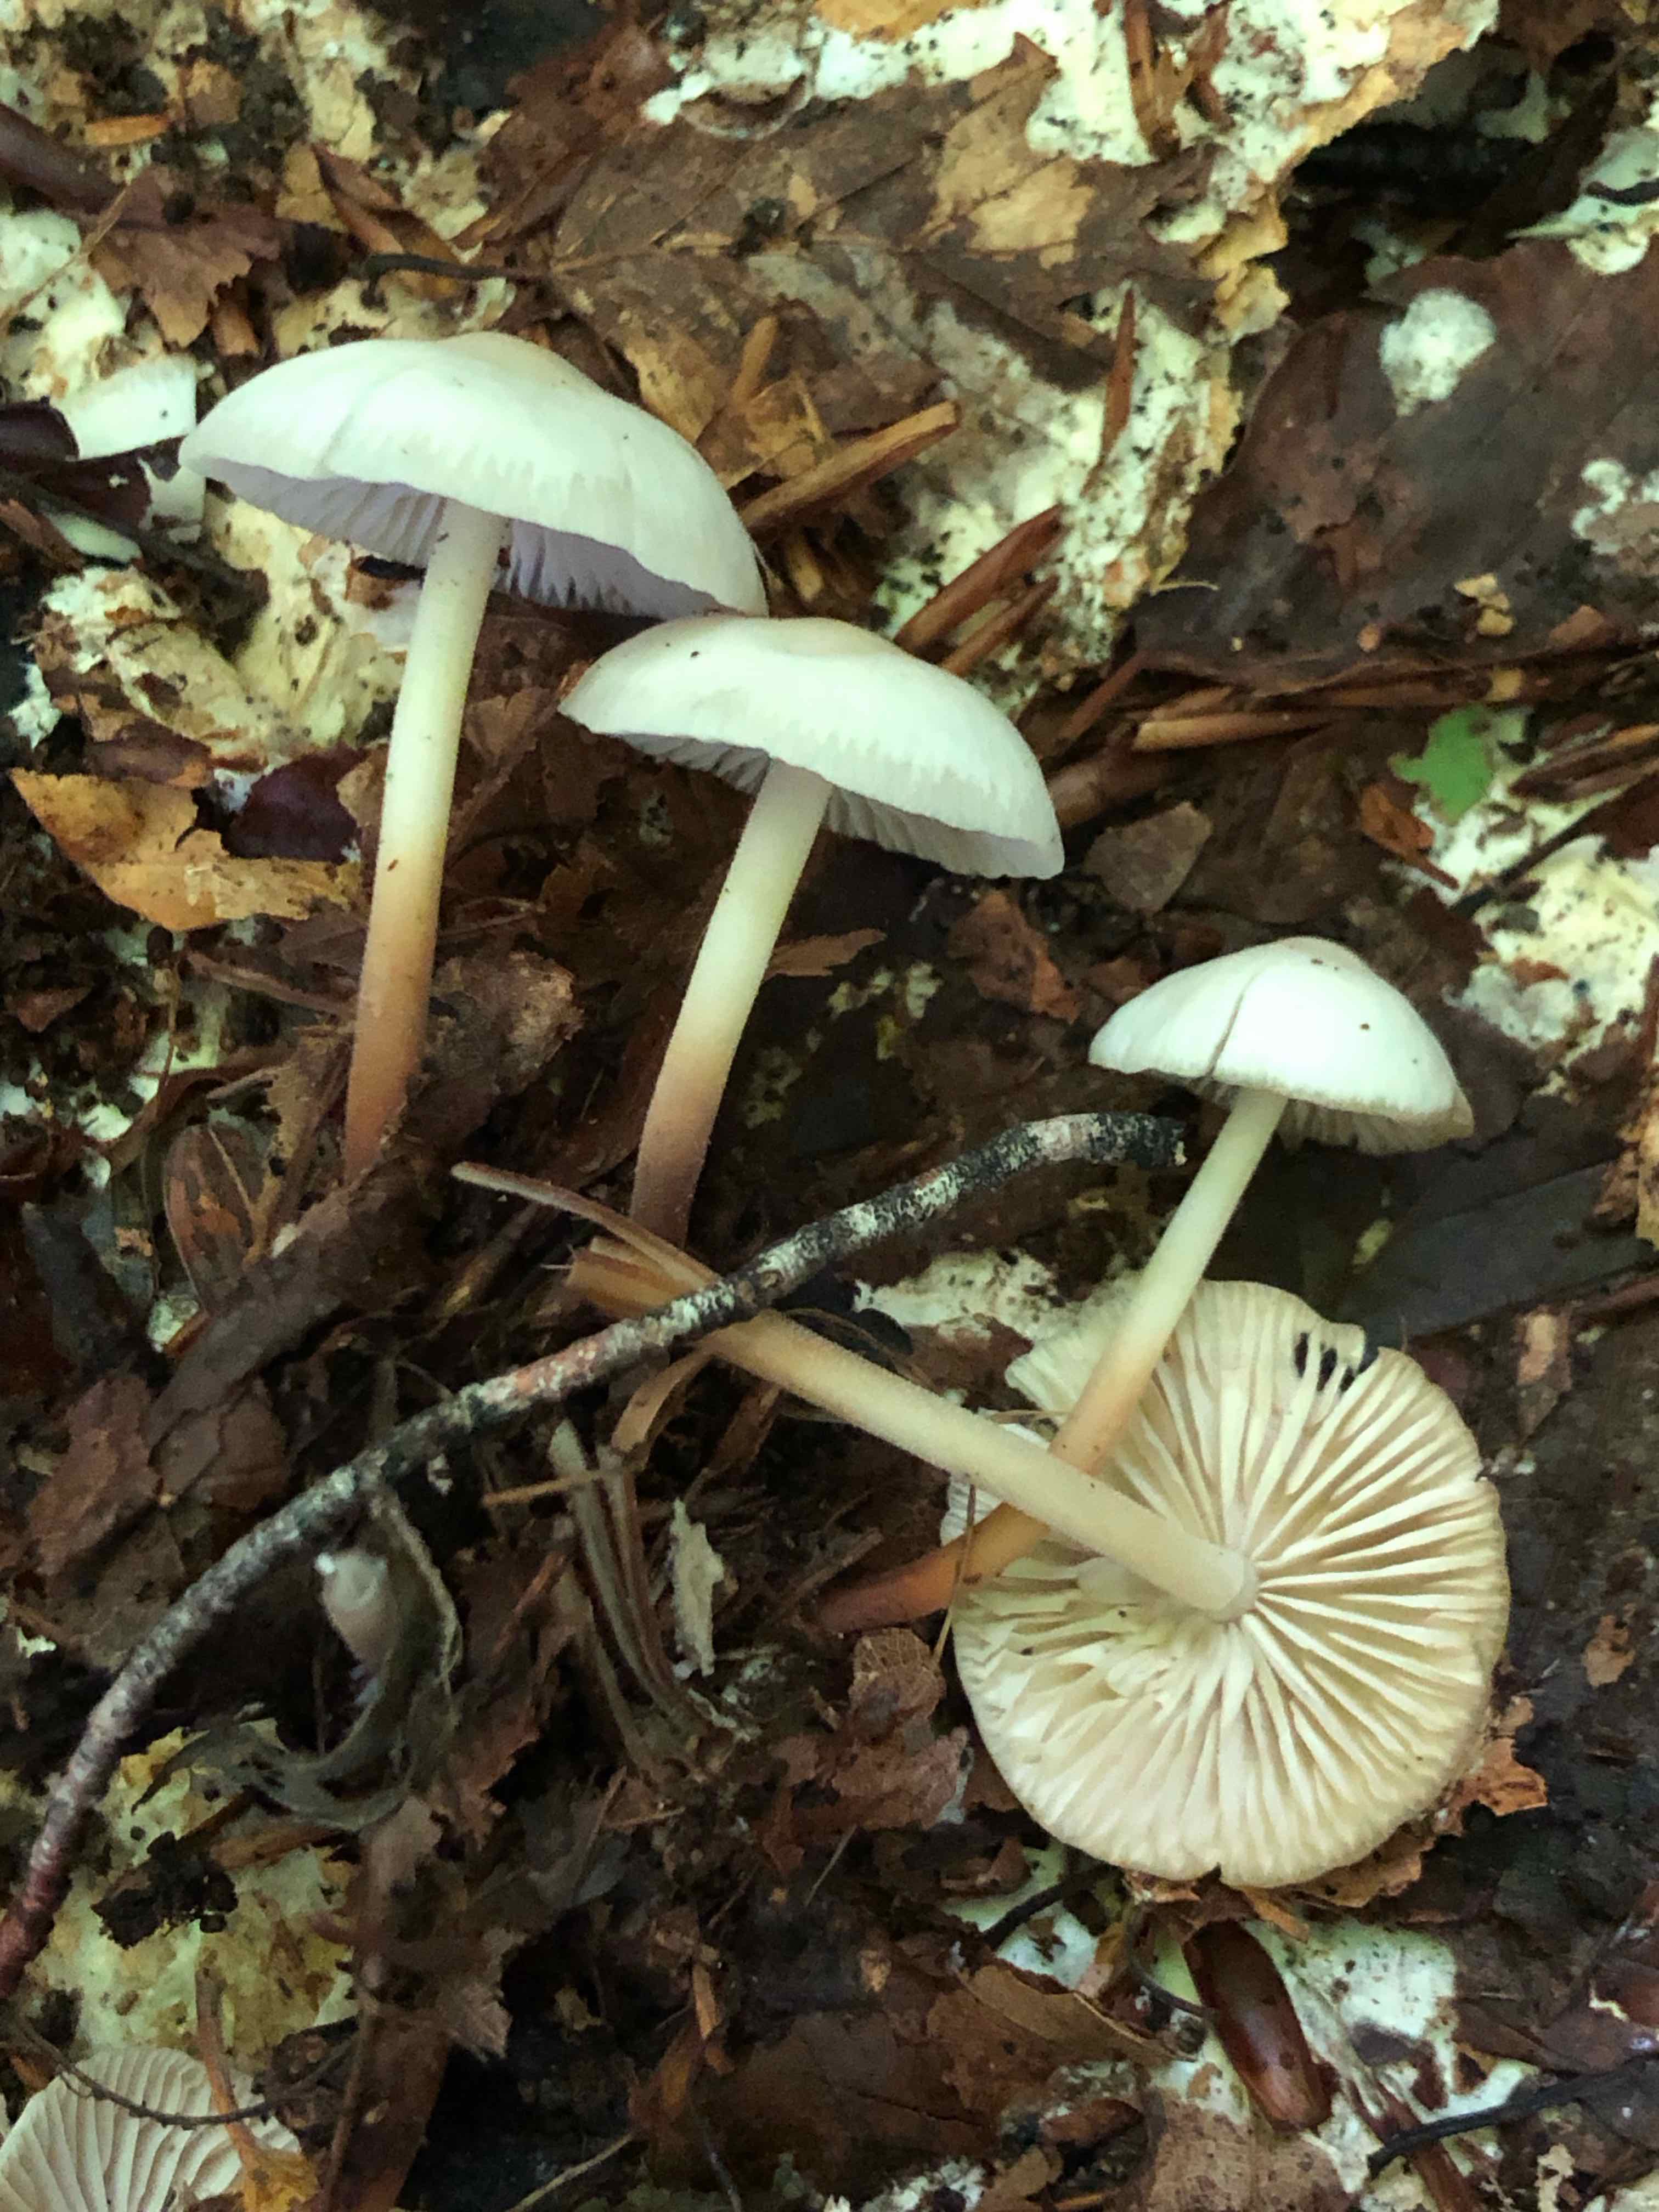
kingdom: Fungi
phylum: Basidiomycota
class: Agaricomycetes
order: Agaricales
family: Marasmiaceae
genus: Marasmius
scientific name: Marasmius wynneae
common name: hvælvet bruskhat
